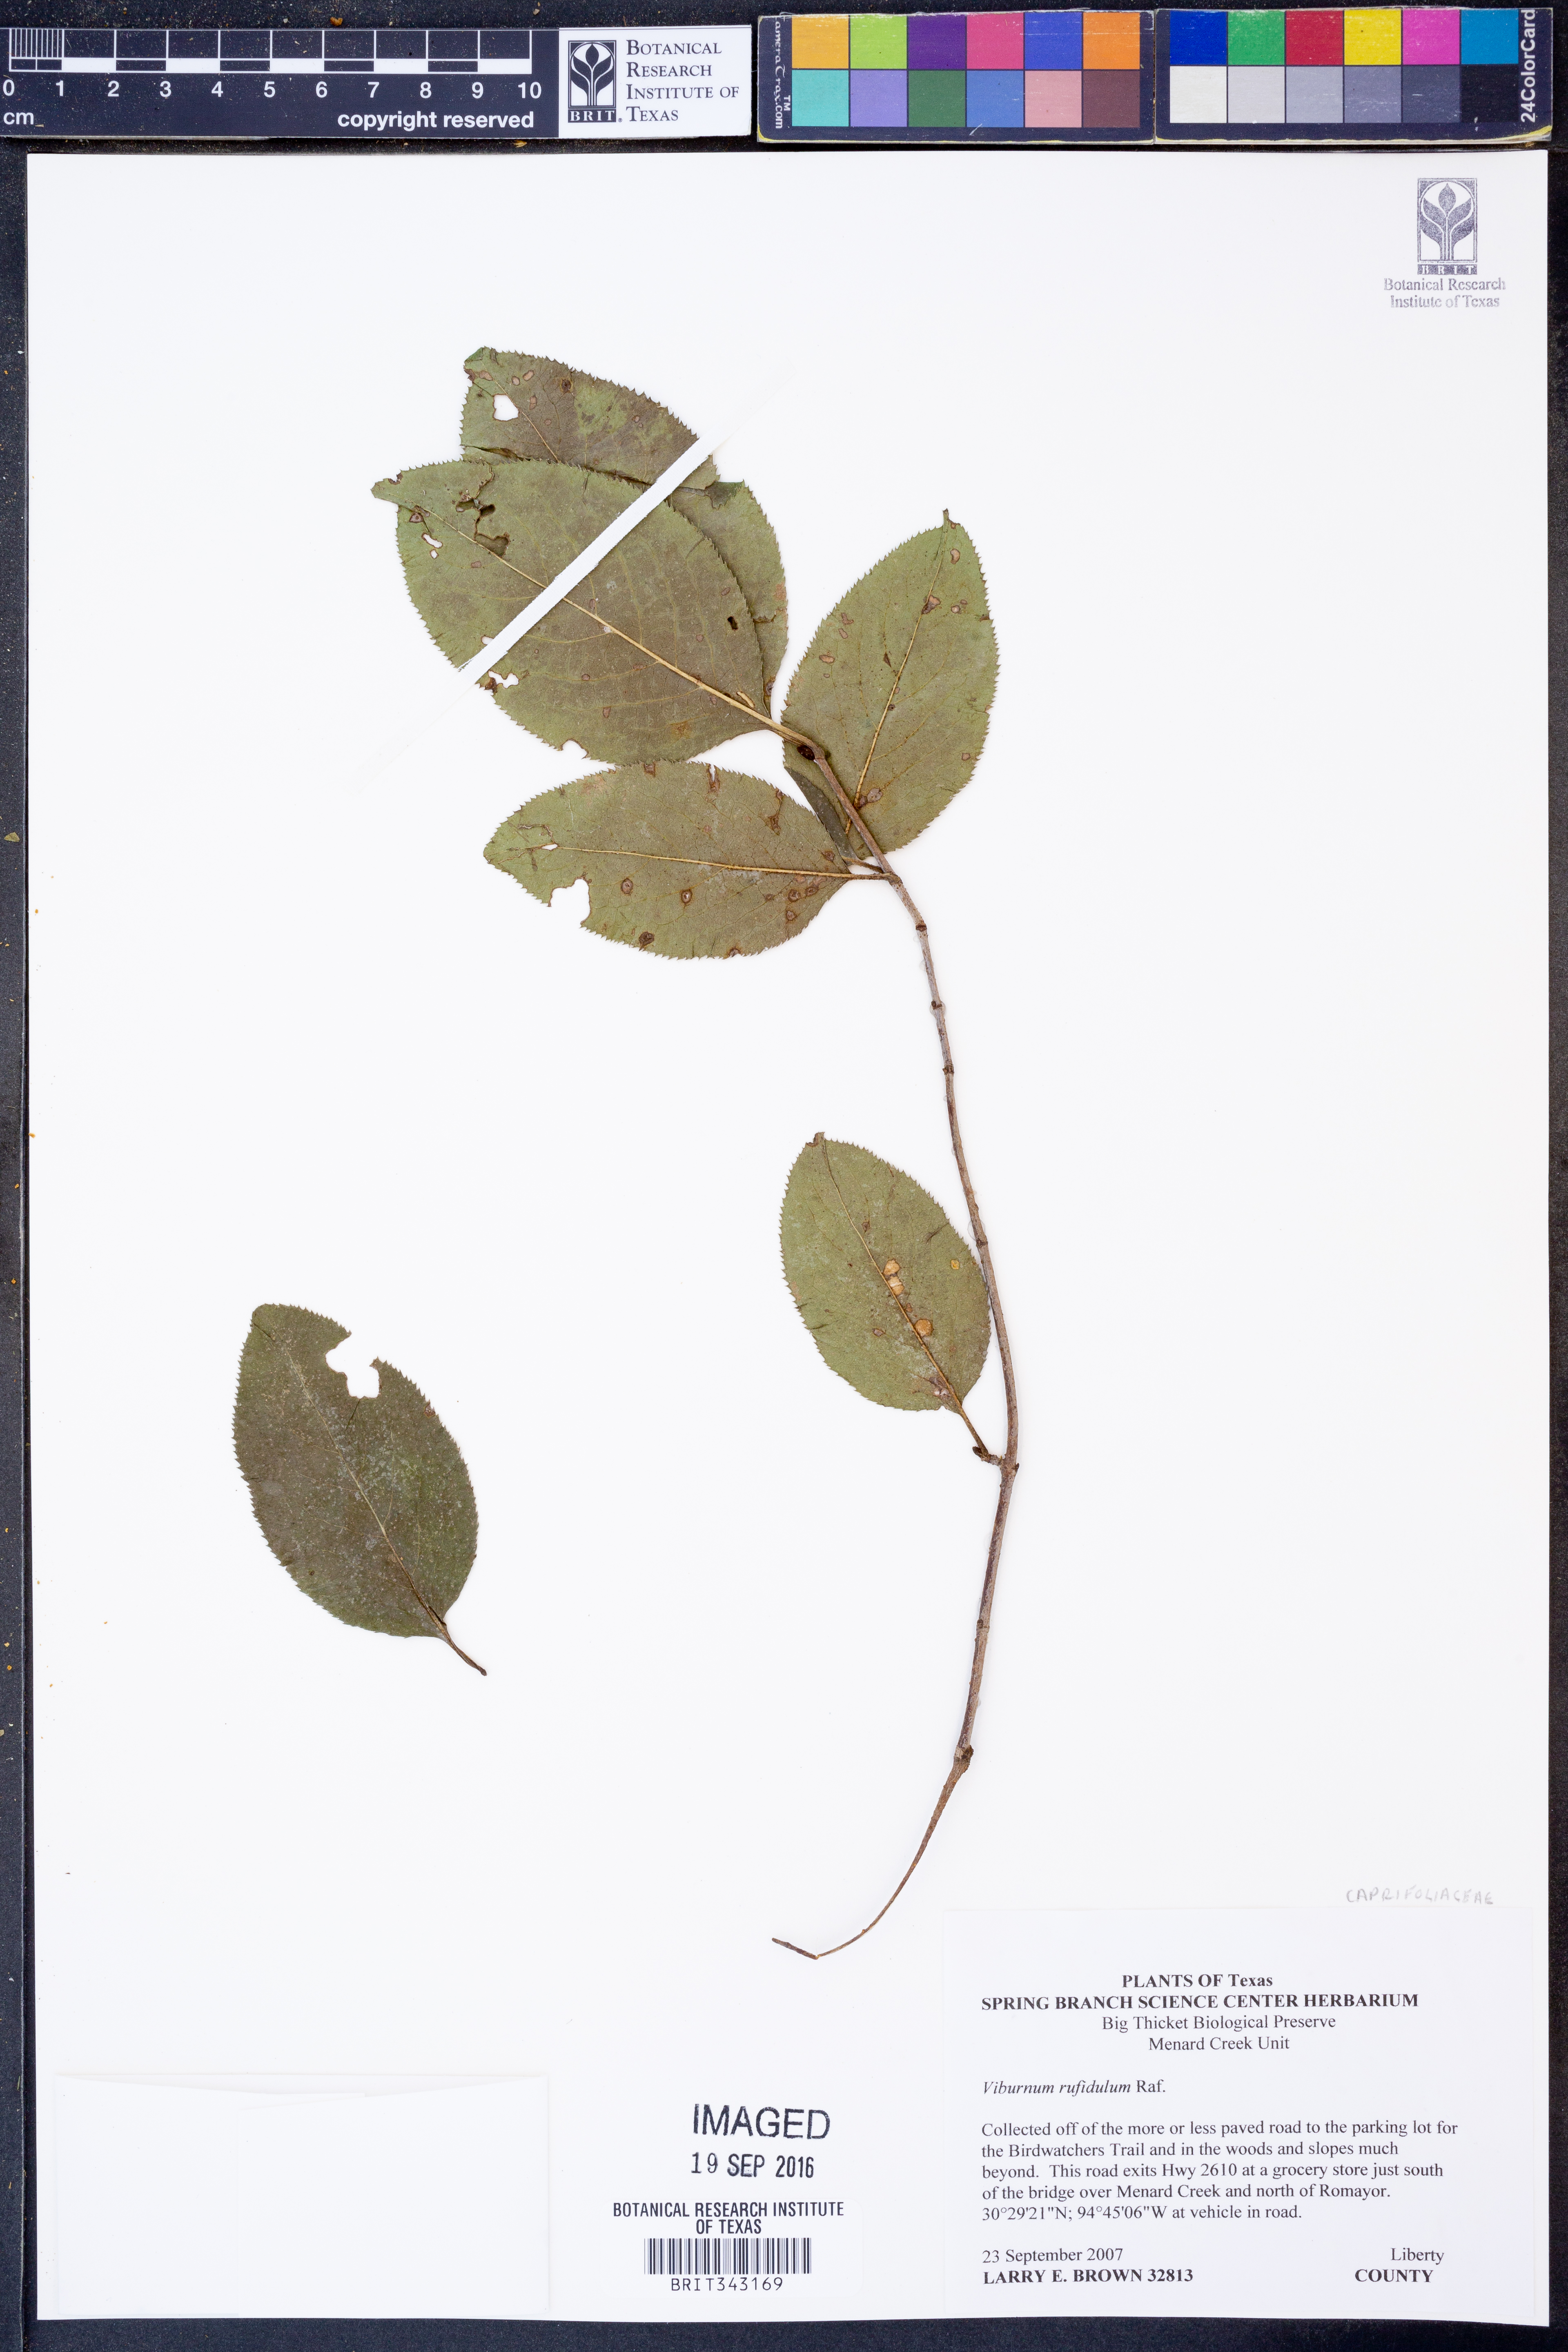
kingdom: Plantae
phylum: Tracheophyta
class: Magnoliopsida
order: Dipsacales
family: Viburnaceae
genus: Viburnum
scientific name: Viburnum rufidulum
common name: Blue haw
